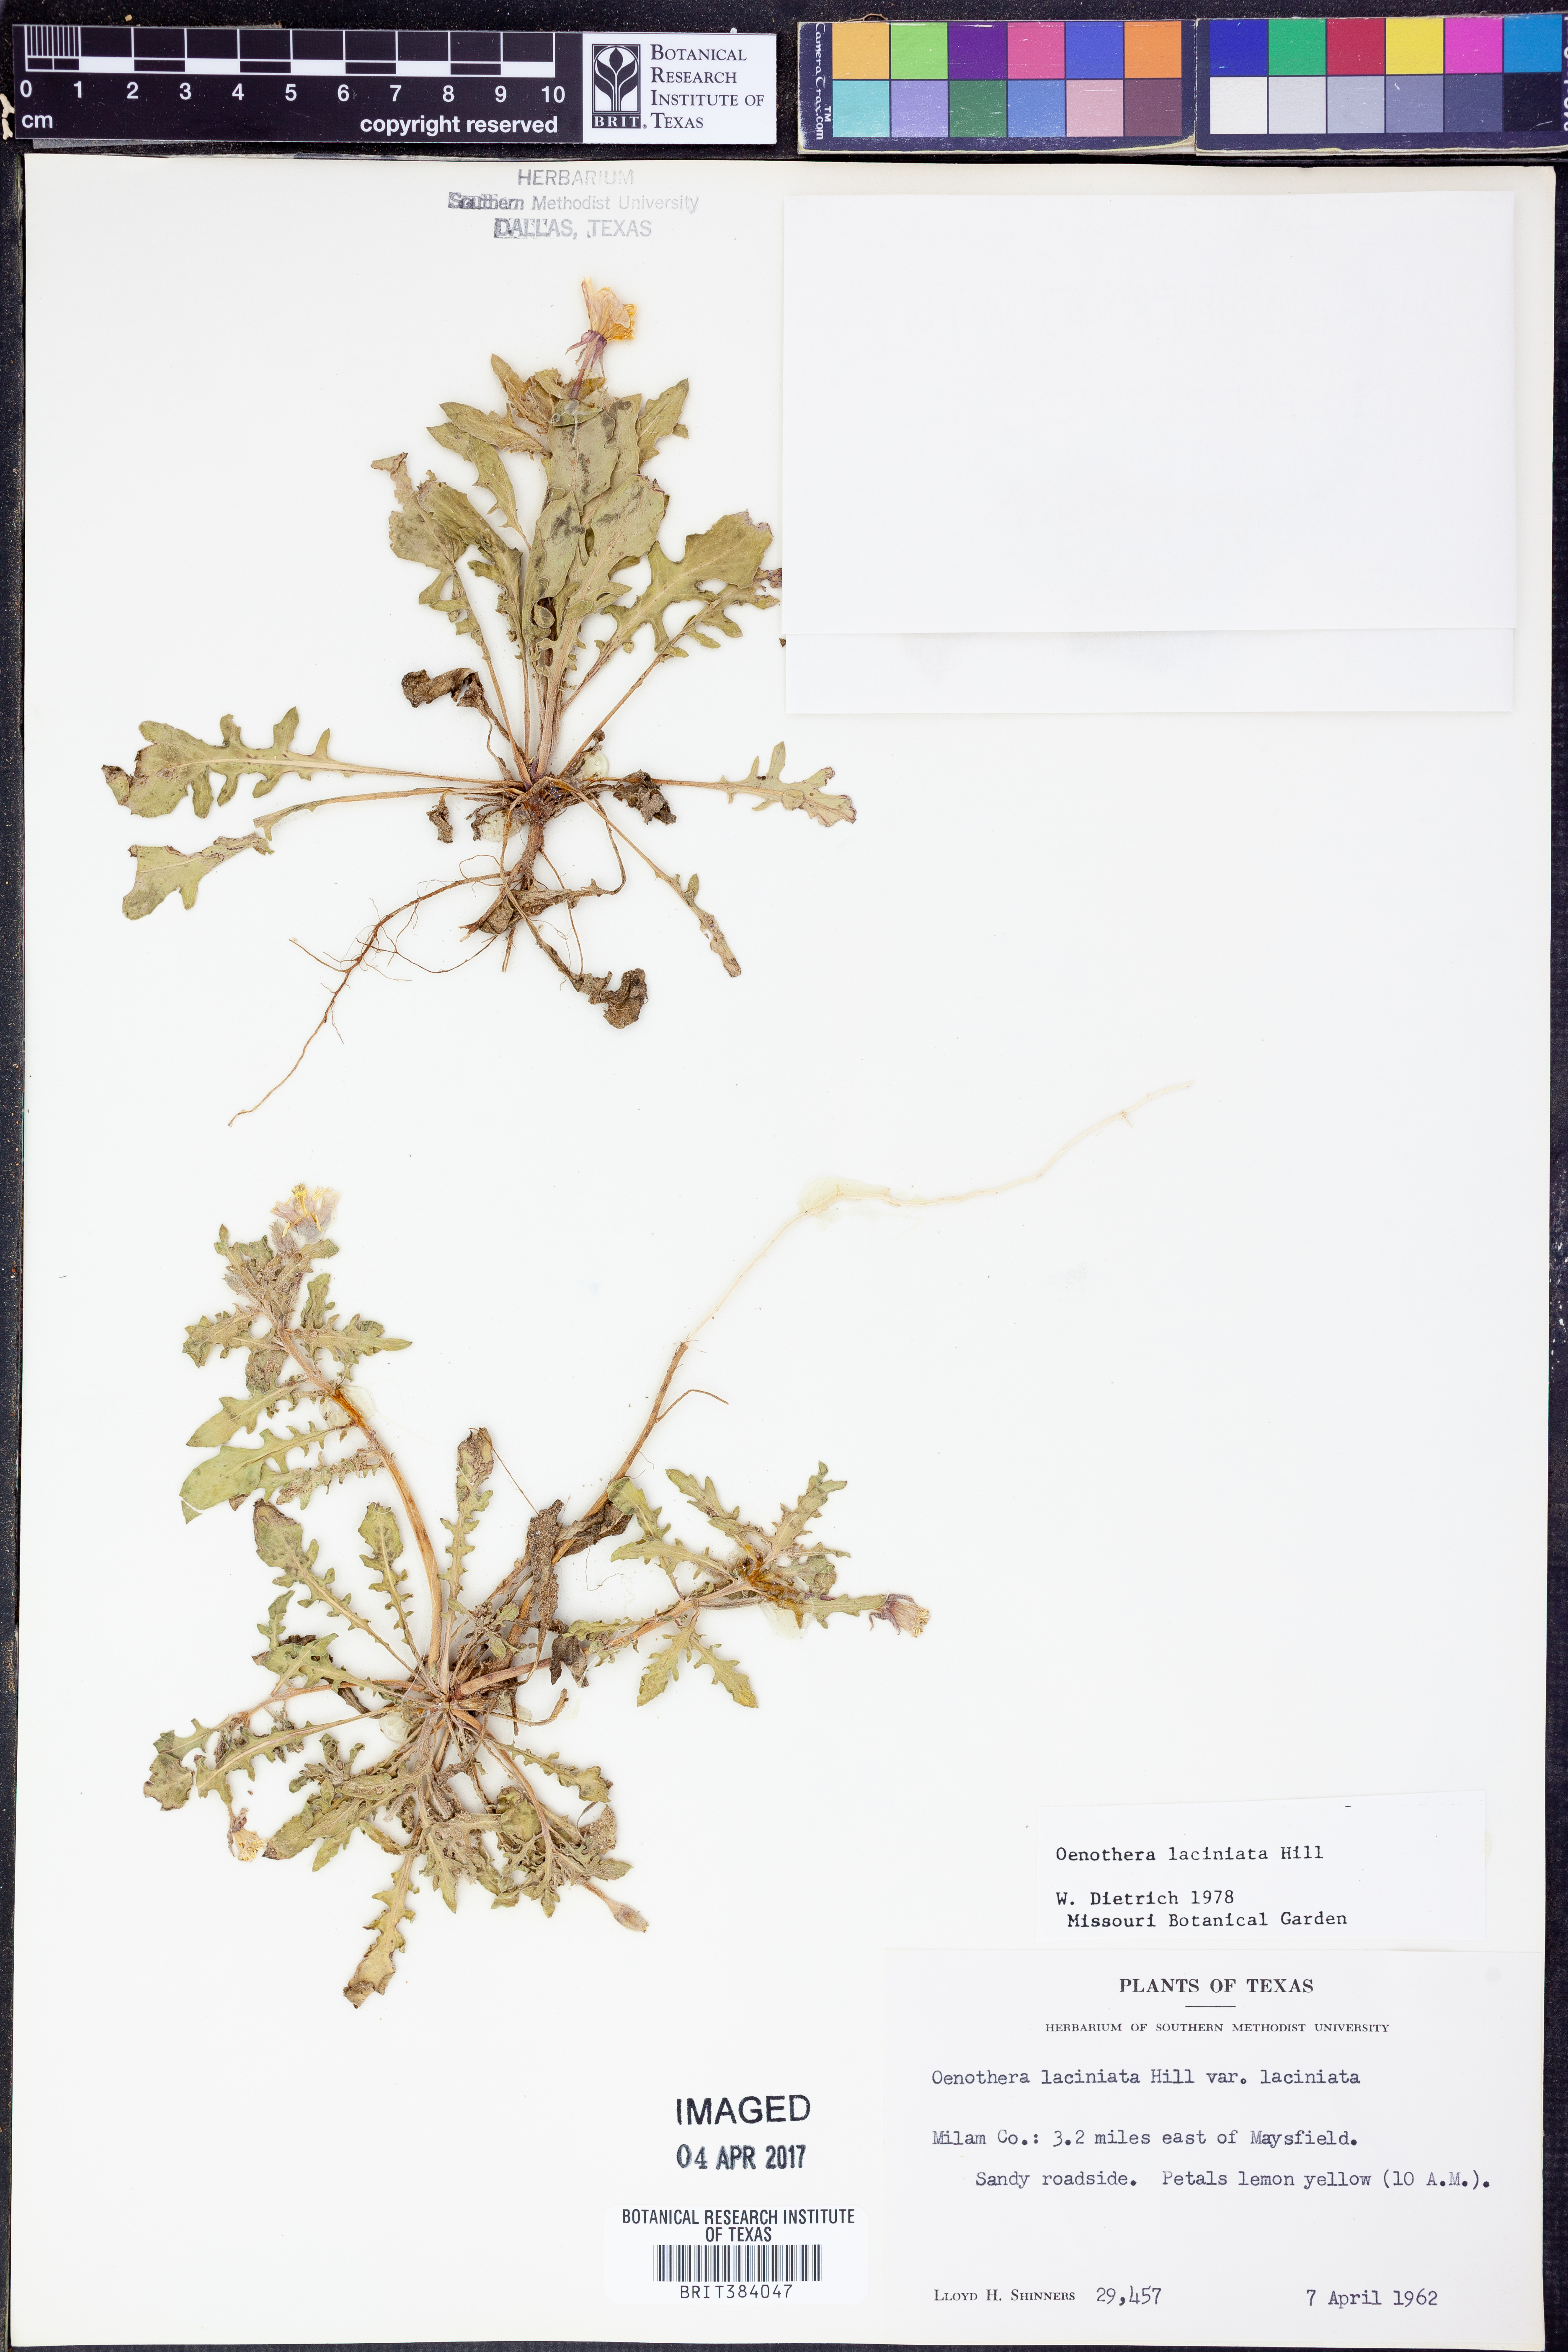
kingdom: Plantae
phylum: Tracheophyta
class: Magnoliopsida
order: Myrtales
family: Onagraceae
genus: Oenothera
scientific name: Oenothera laciniata
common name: Cut-leaved evening-primrose
